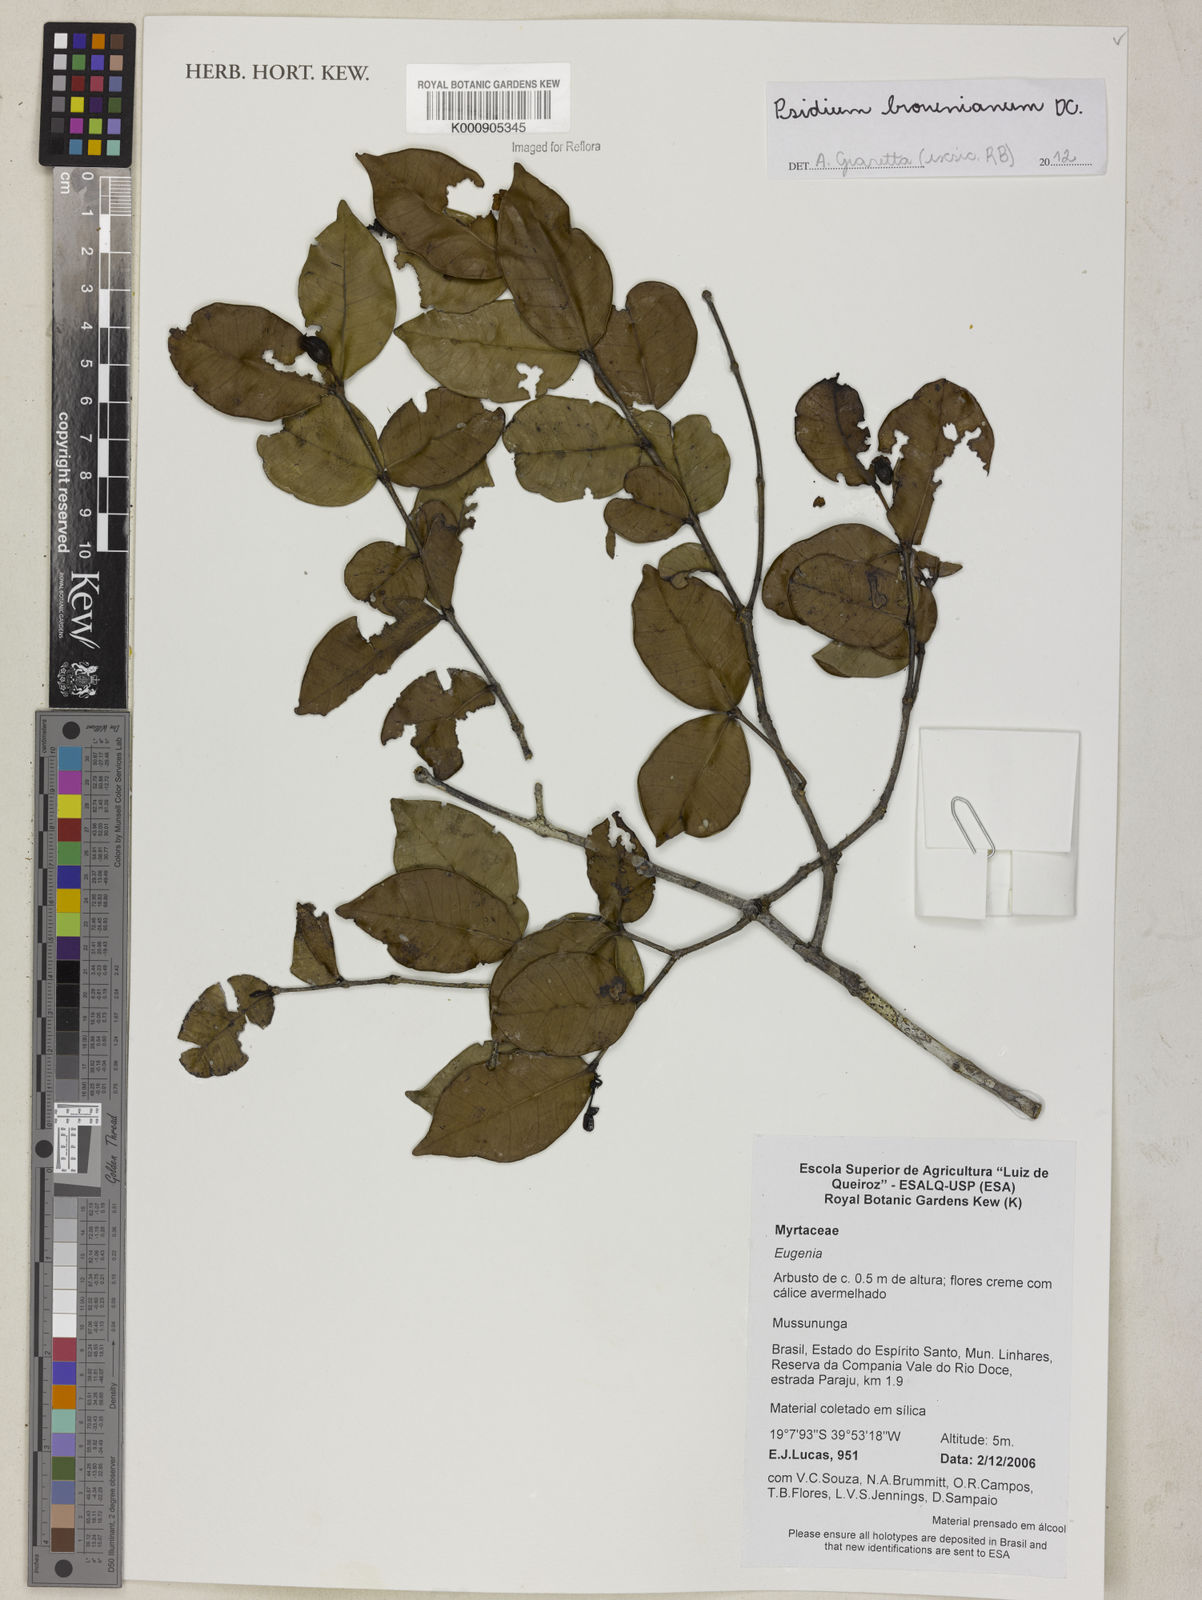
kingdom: Plantae
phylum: Tracheophyta
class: Magnoliopsida
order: Myrtales
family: Myrtaceae
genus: Psidium
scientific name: Psidium brownianum
